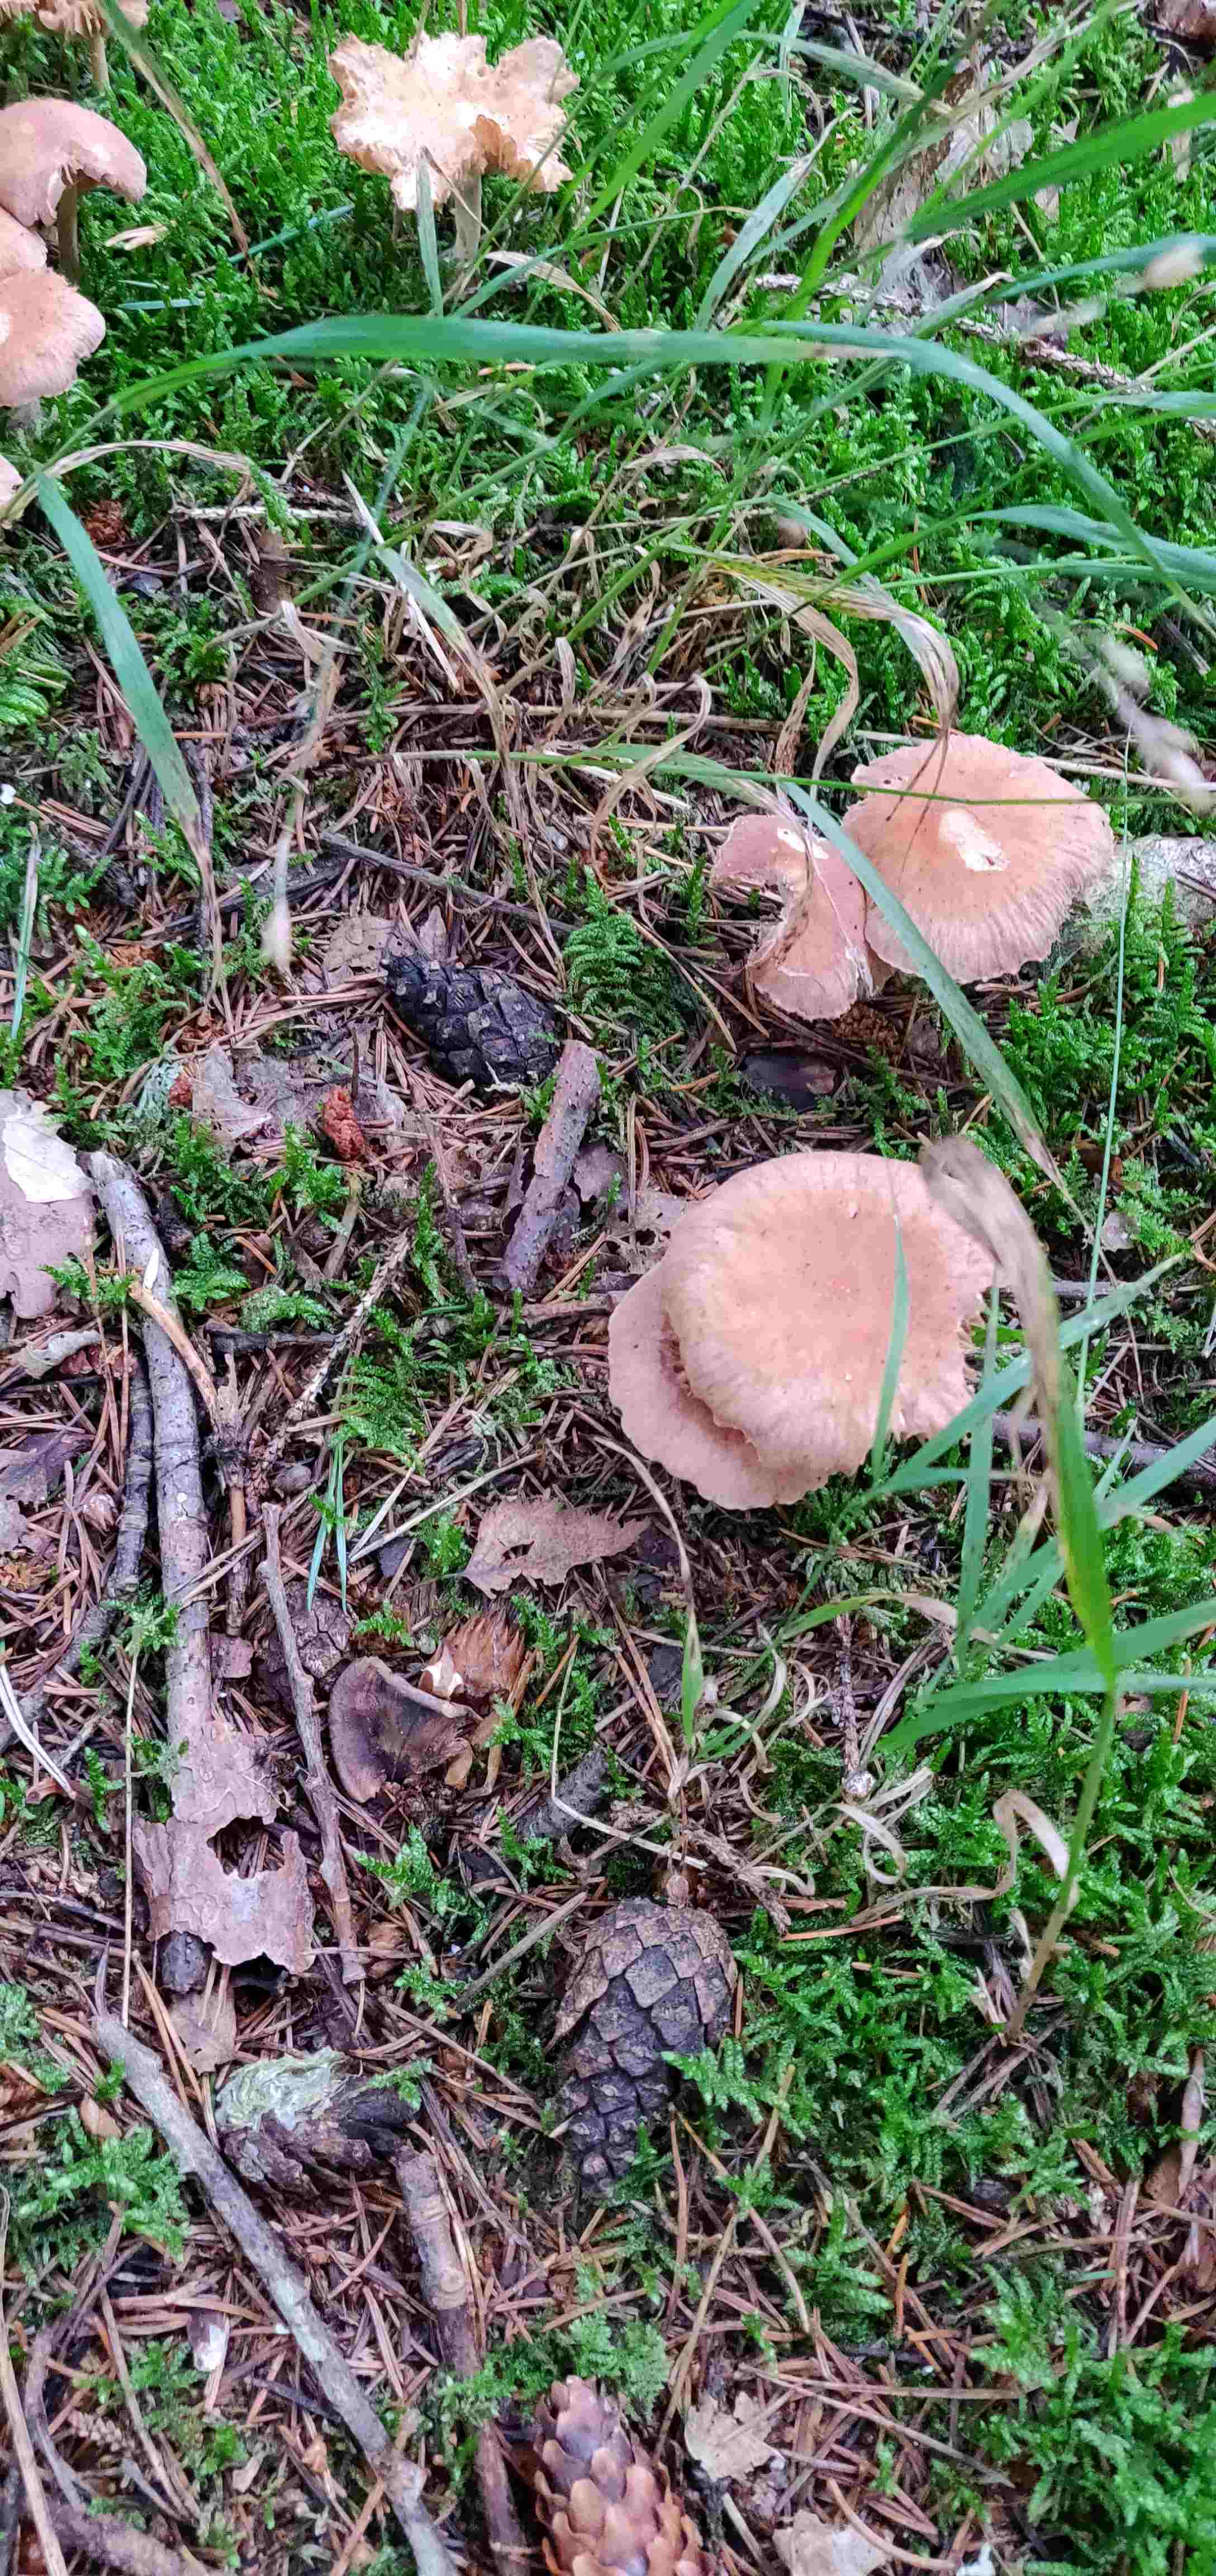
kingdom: Fungi
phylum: Basidiomycota
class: Agaricomycetes
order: Agaricales
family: Omphalotaceae
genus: Collybiopsis
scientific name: Collybiopsis peronata
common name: bestøvlet fladhat
